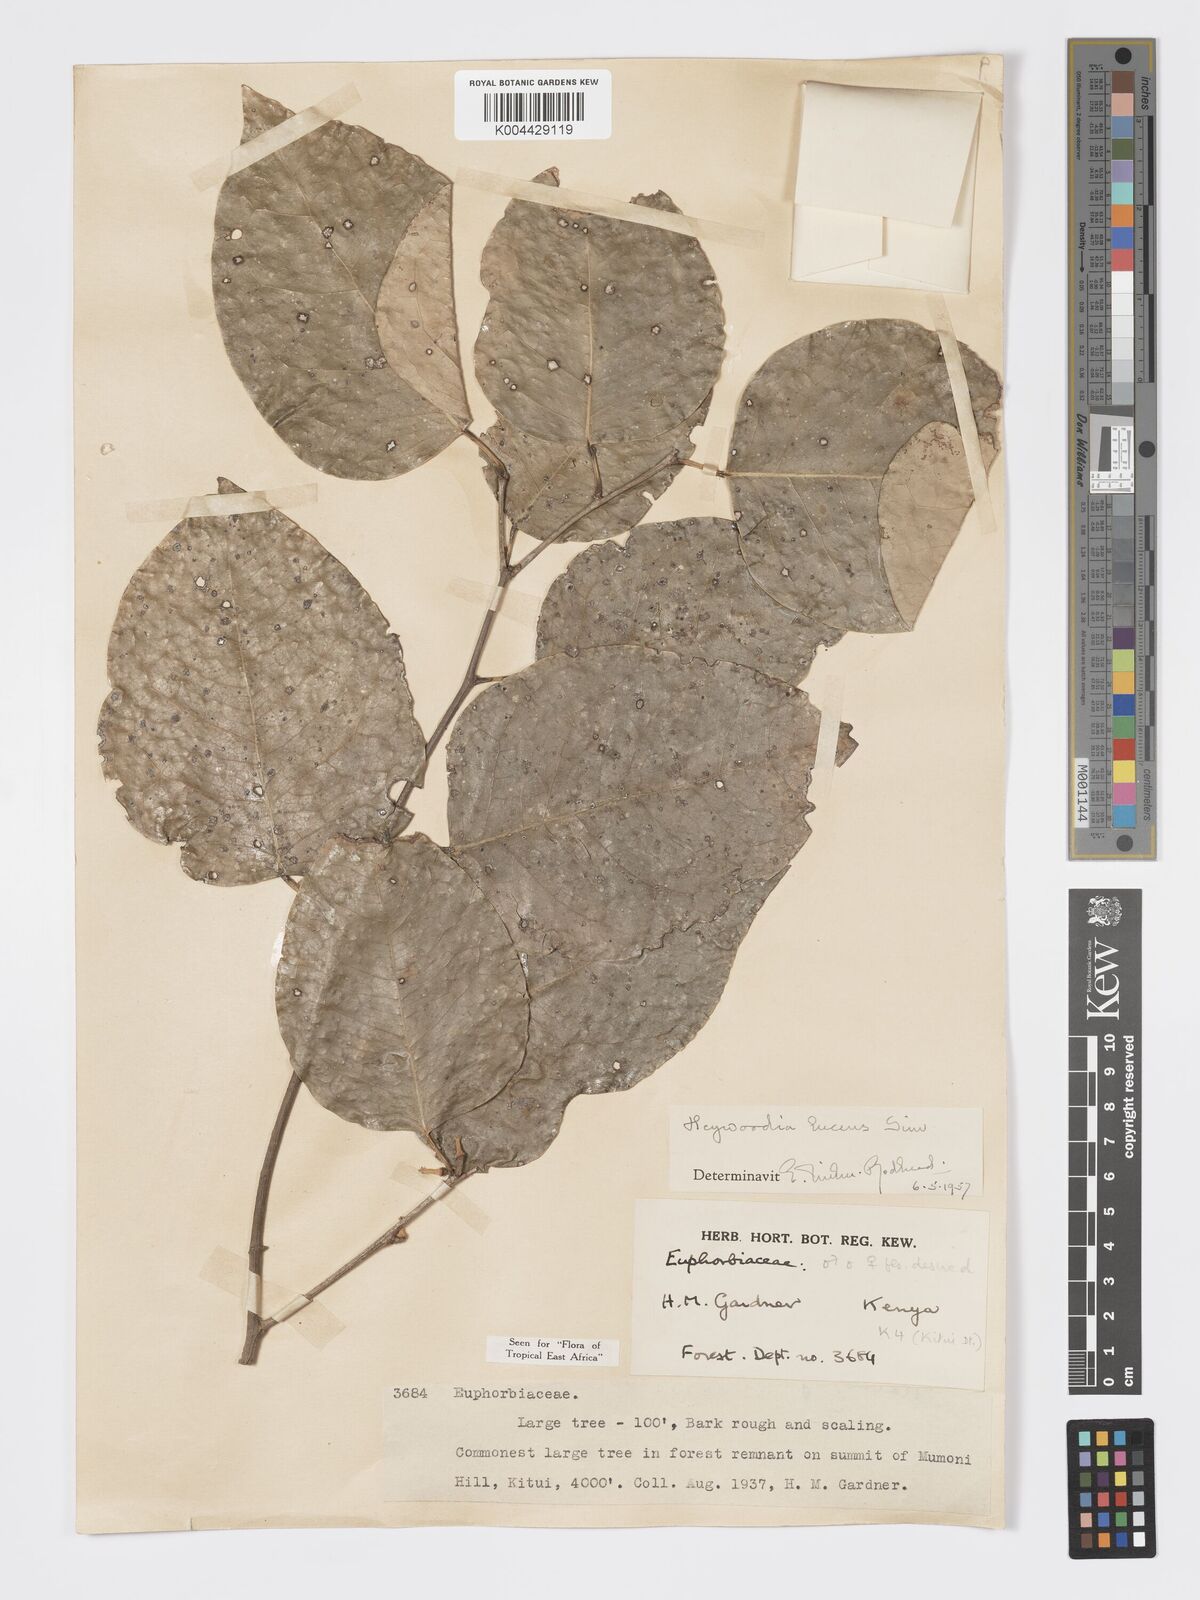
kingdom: Plantae
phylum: Tracheophyta
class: Magnoliopsida
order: Malpighiales
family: Phyllanthaceae
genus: Heywoodia
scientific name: Heywoodia lucens
